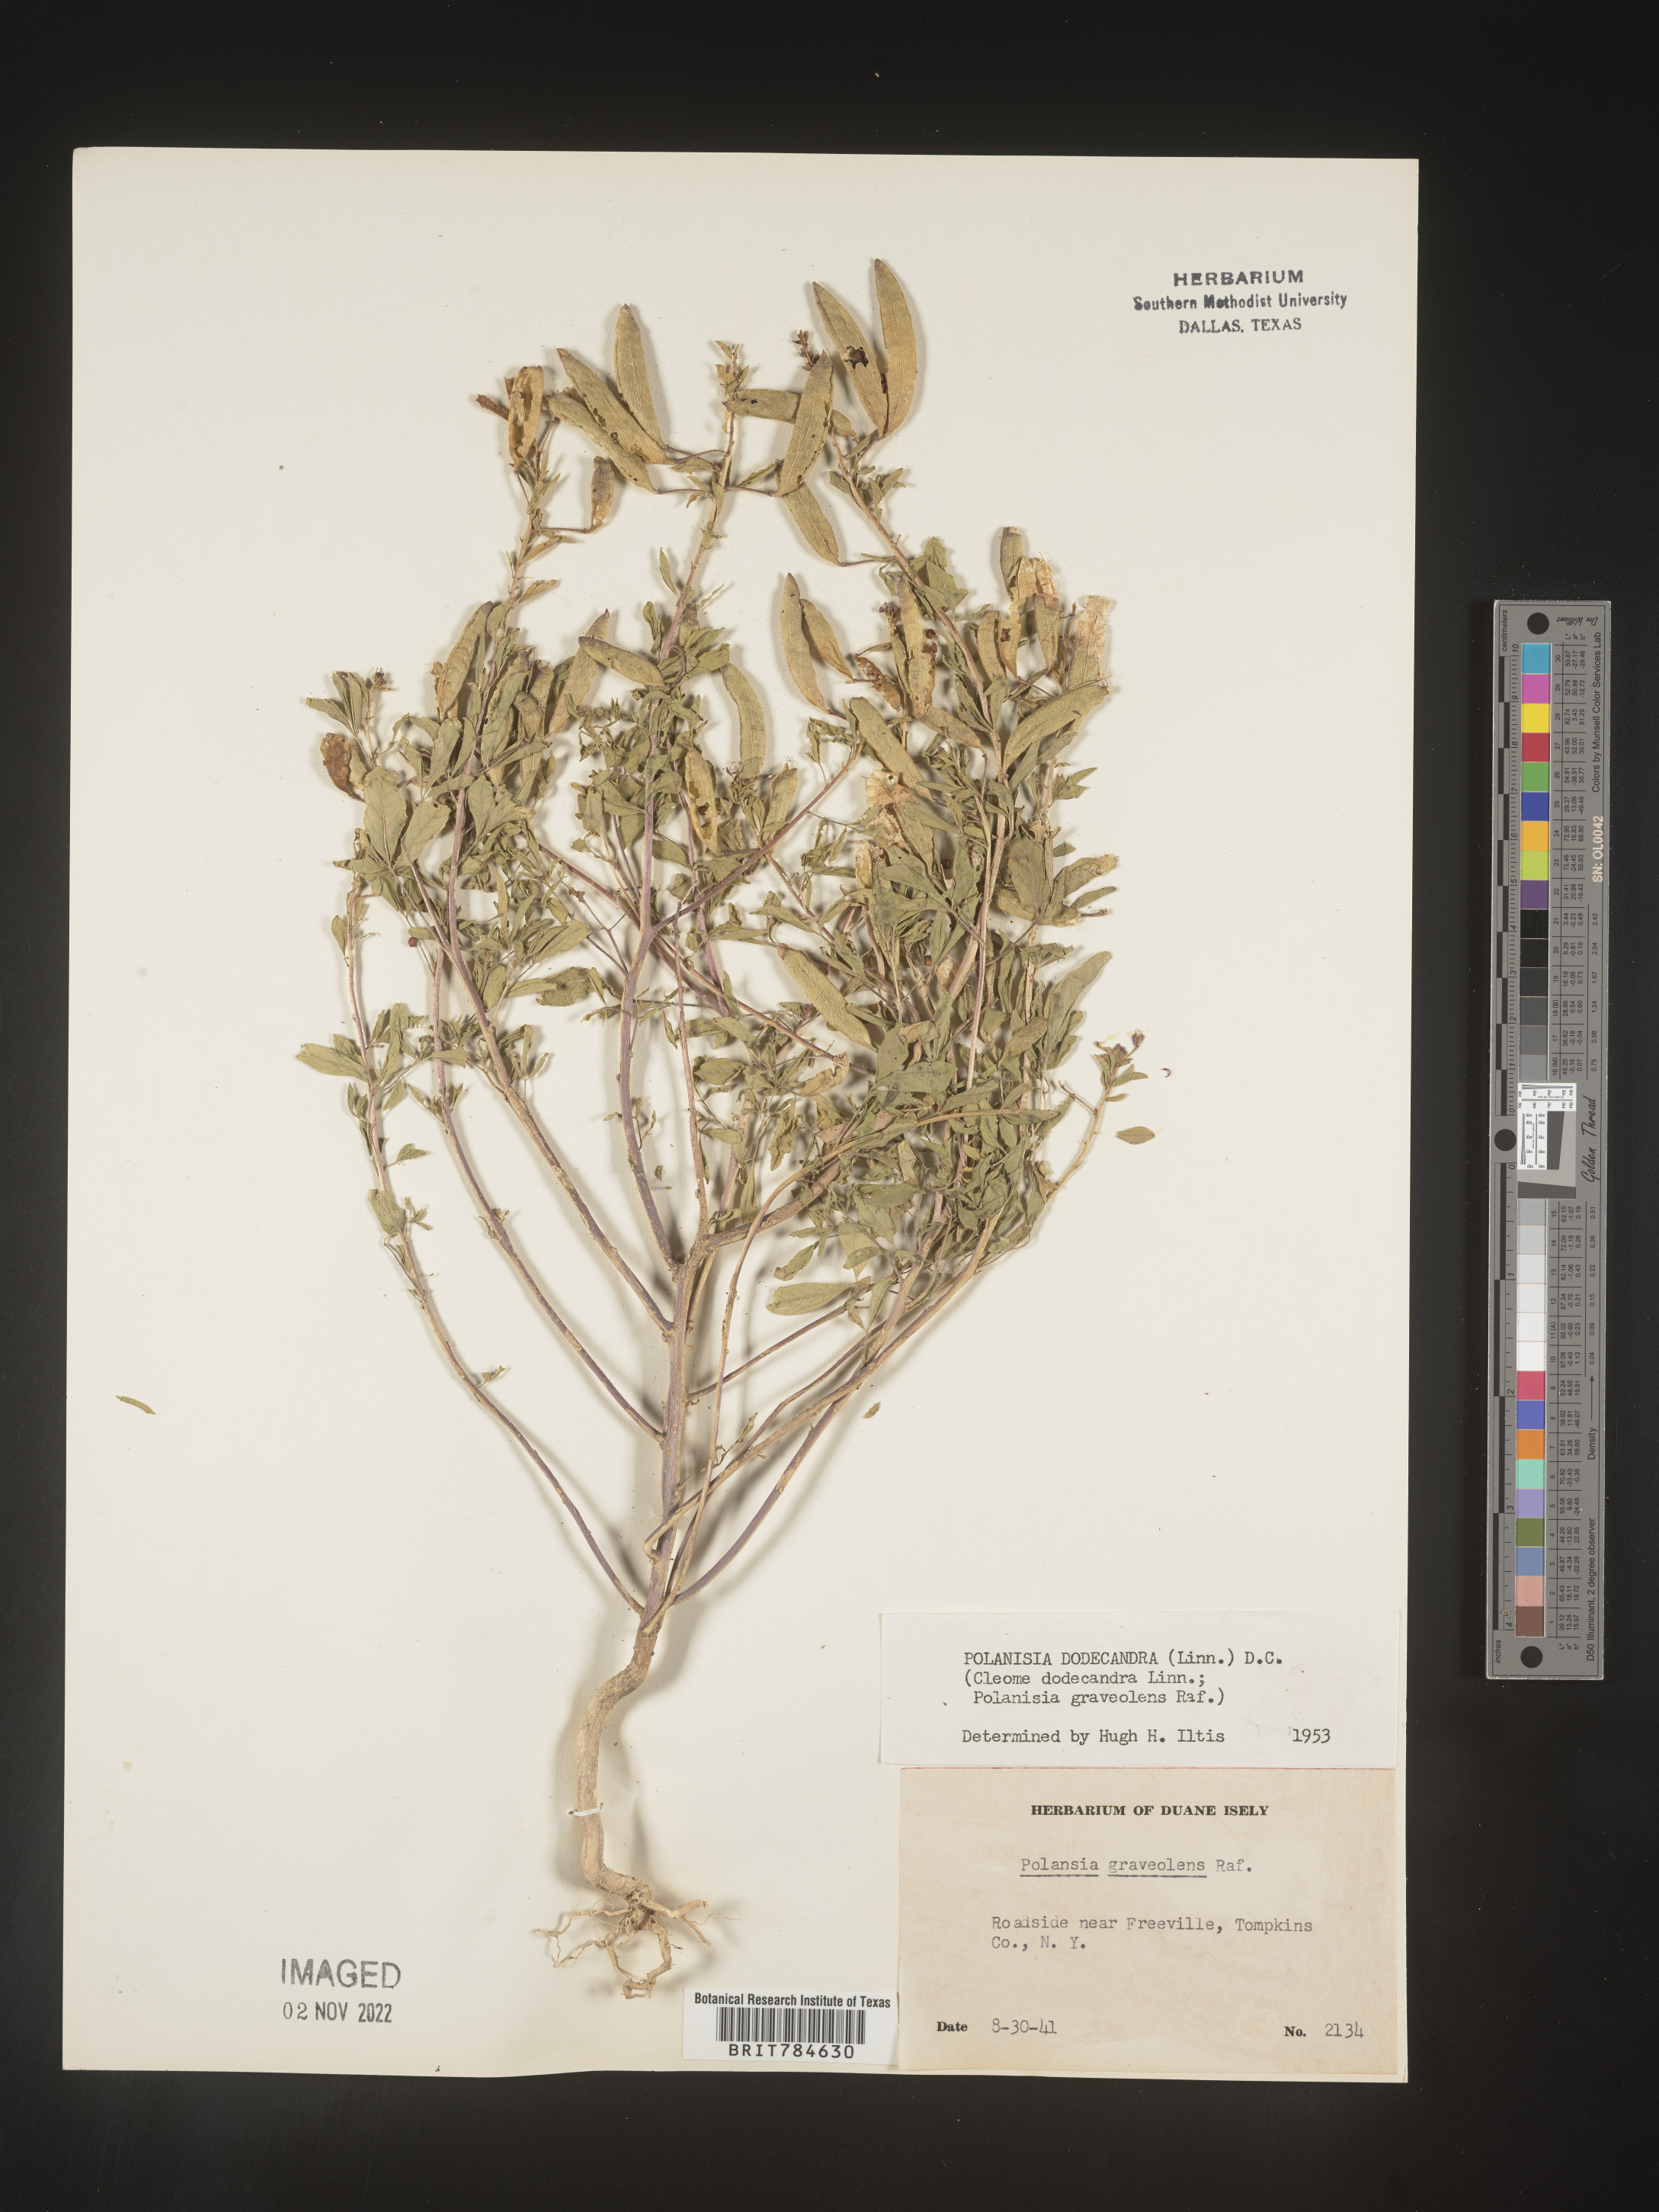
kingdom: Plantae
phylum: Tracheophyta
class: Magnoliopsida
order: Brassicales
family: Cleomaceae
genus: Polanisia
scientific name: Polanisia dodecandra
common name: Clammyweed
